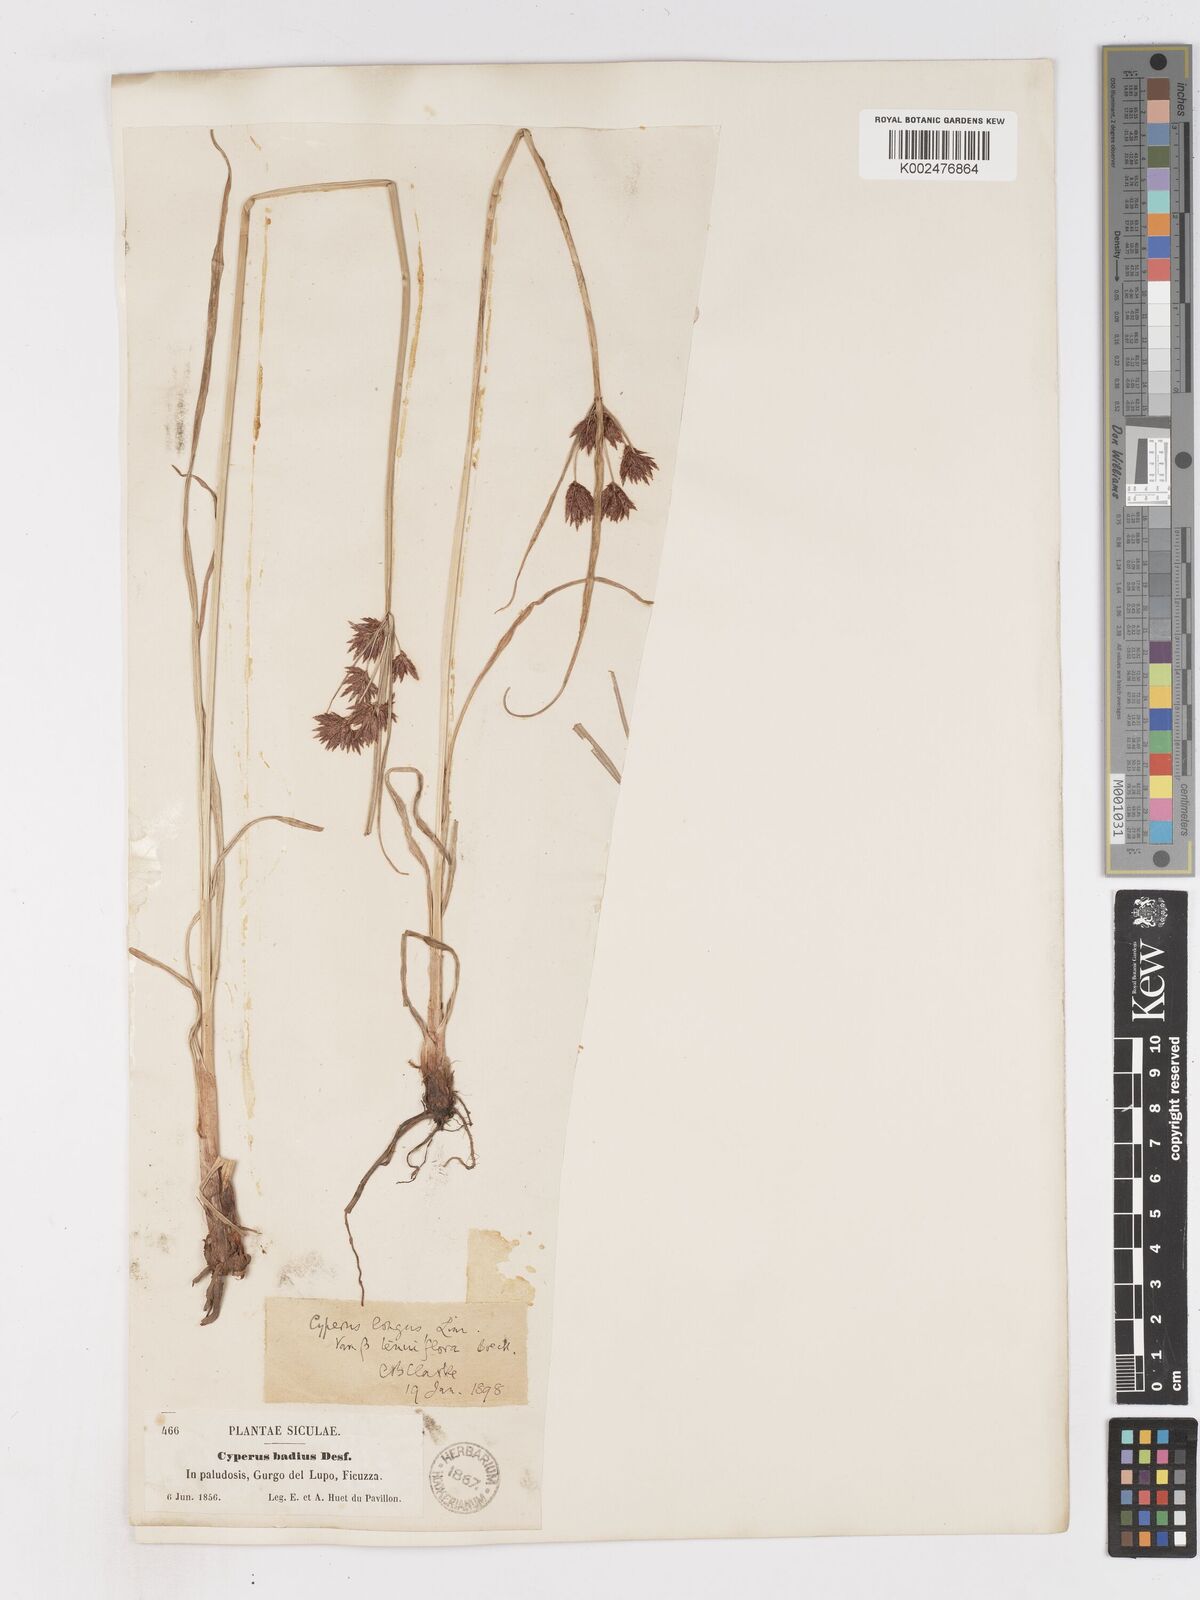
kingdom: Plantae
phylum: Tracheophyta
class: Liliopsida
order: Poales
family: Cyperaceae
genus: Cyperus
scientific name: Cyperus longus
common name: Galingale
